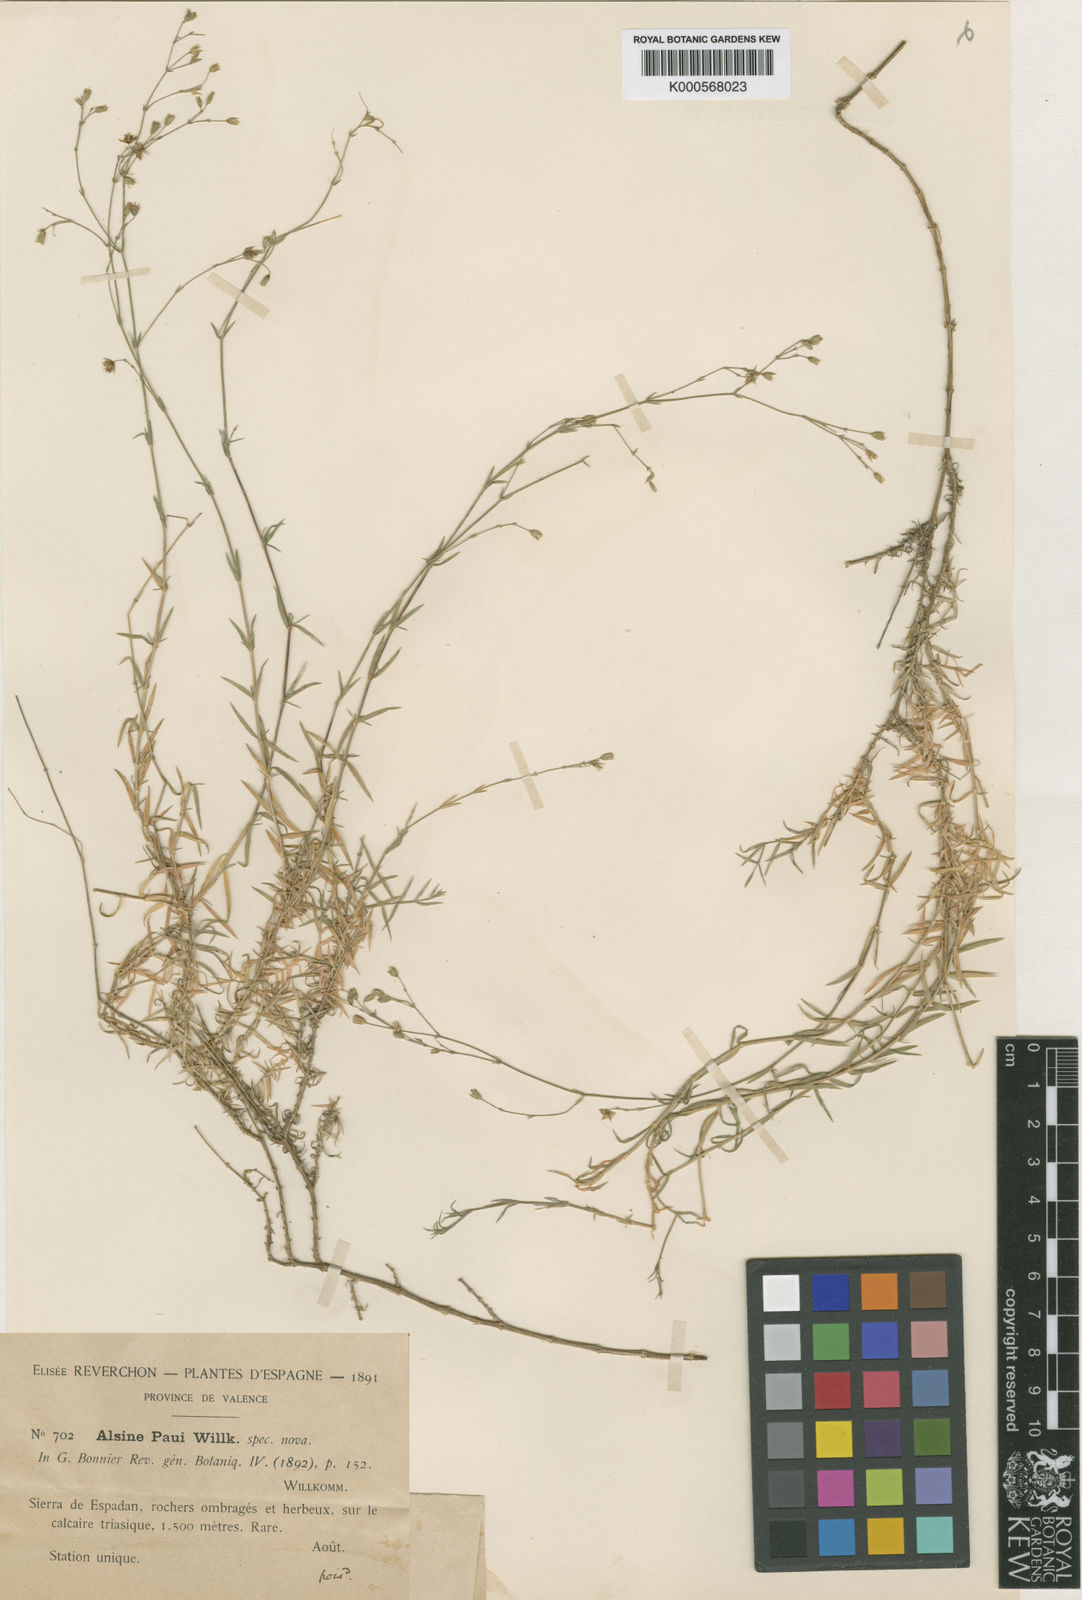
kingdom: Plantae
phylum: Tracheophyta
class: Magnoliopsida
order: Caryophyllales
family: Caryophyllaceae
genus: Facchinia
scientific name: Facchinia valentina
